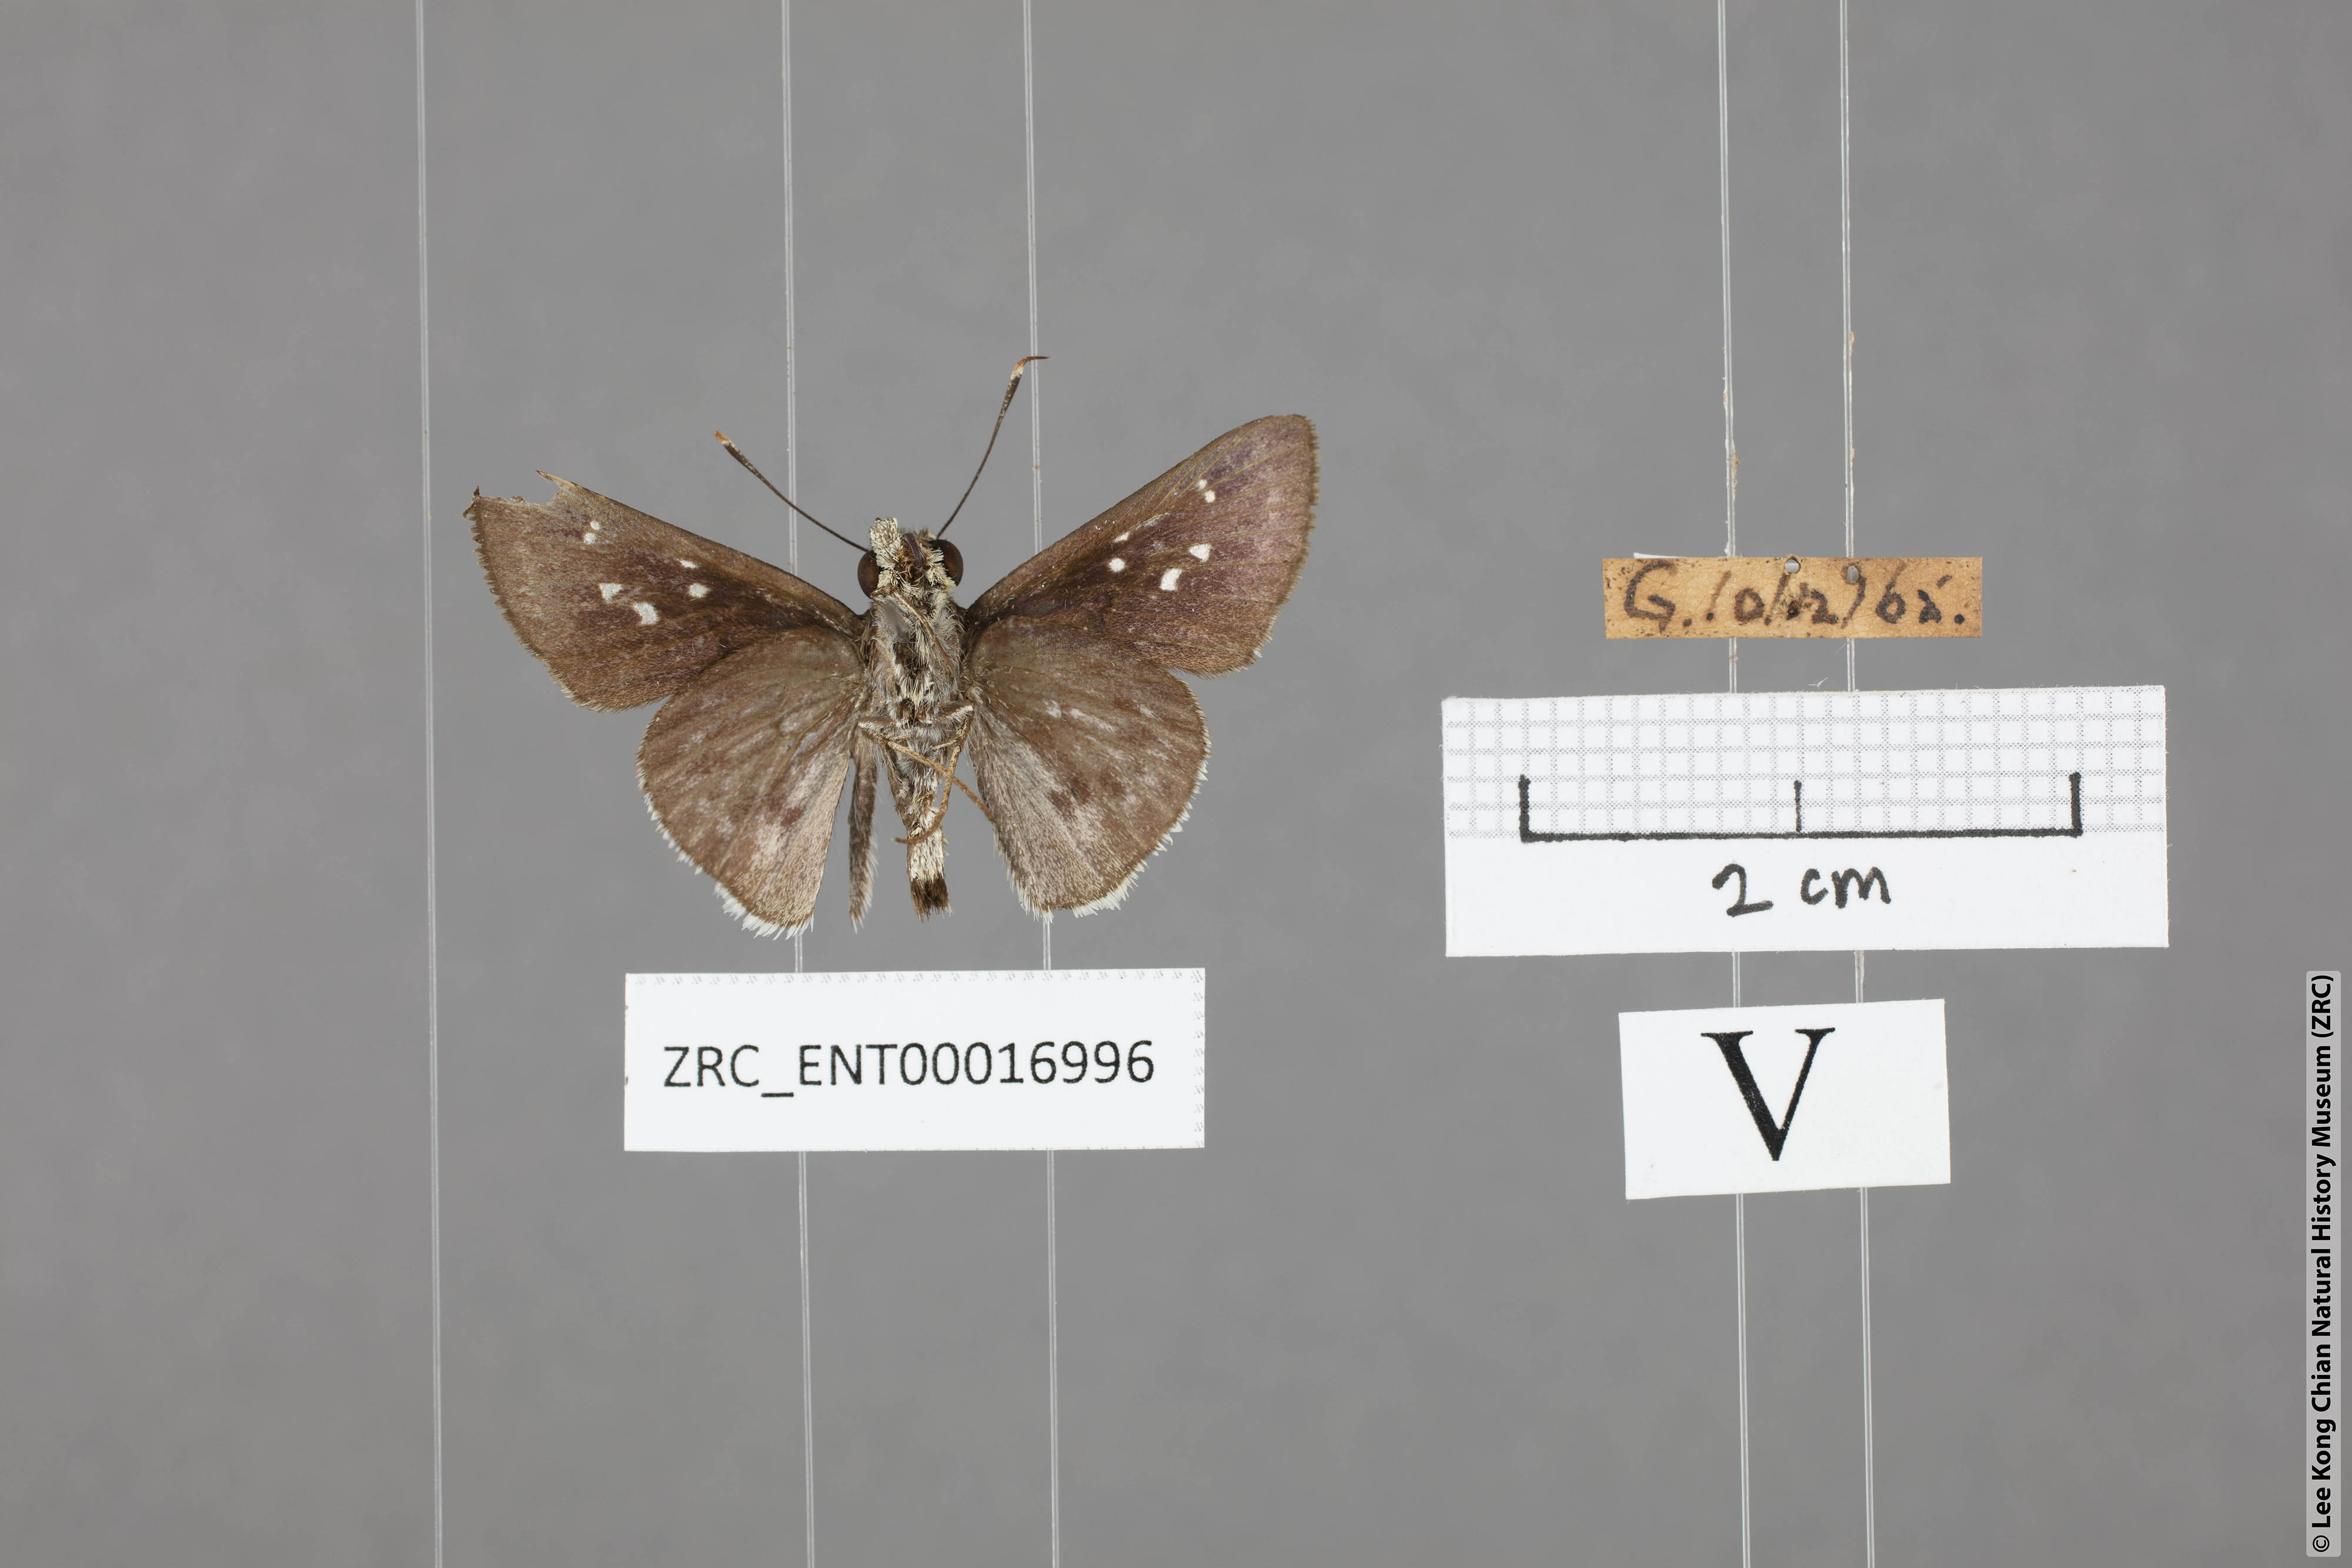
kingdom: Animalia
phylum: Arthropoda
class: Insecta
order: Lepidoptera
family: Hesperiidae
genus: Halpe
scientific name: Halpe insignis
